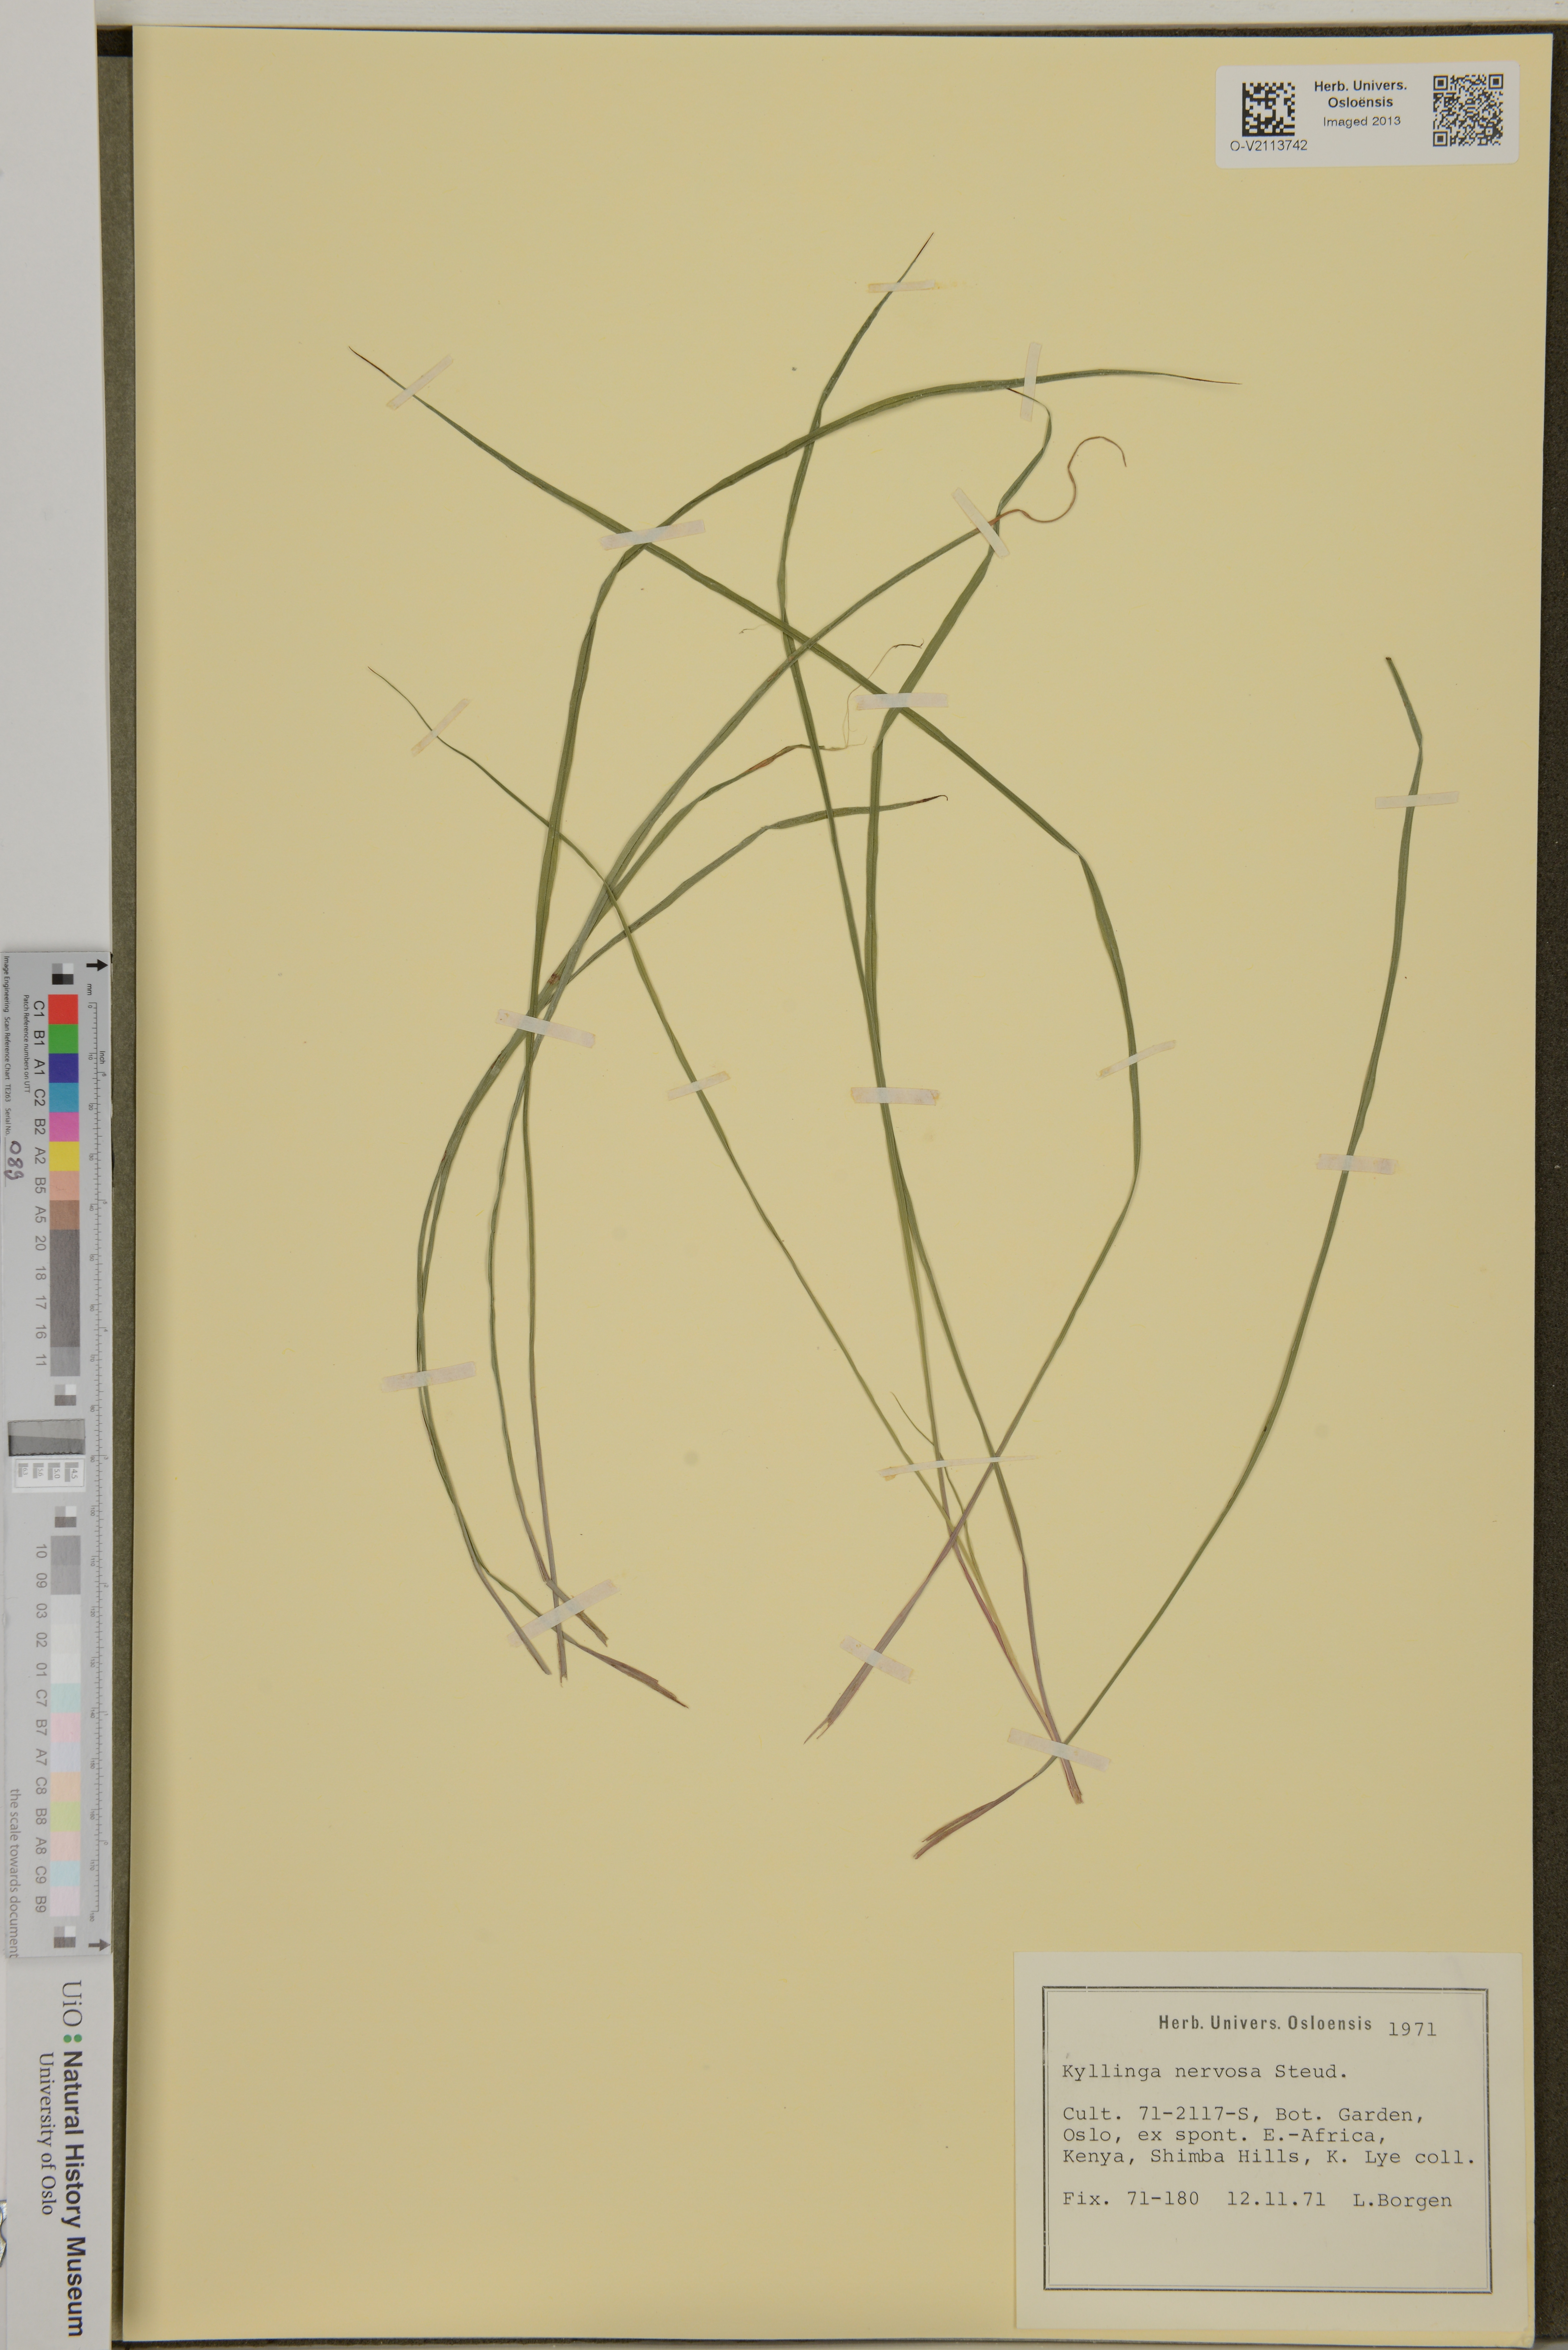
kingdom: Plantae
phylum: Tracheophyta
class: Liliopsida
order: Poales
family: Cyperaceae
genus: Cyperus
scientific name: Cyperus costatus
